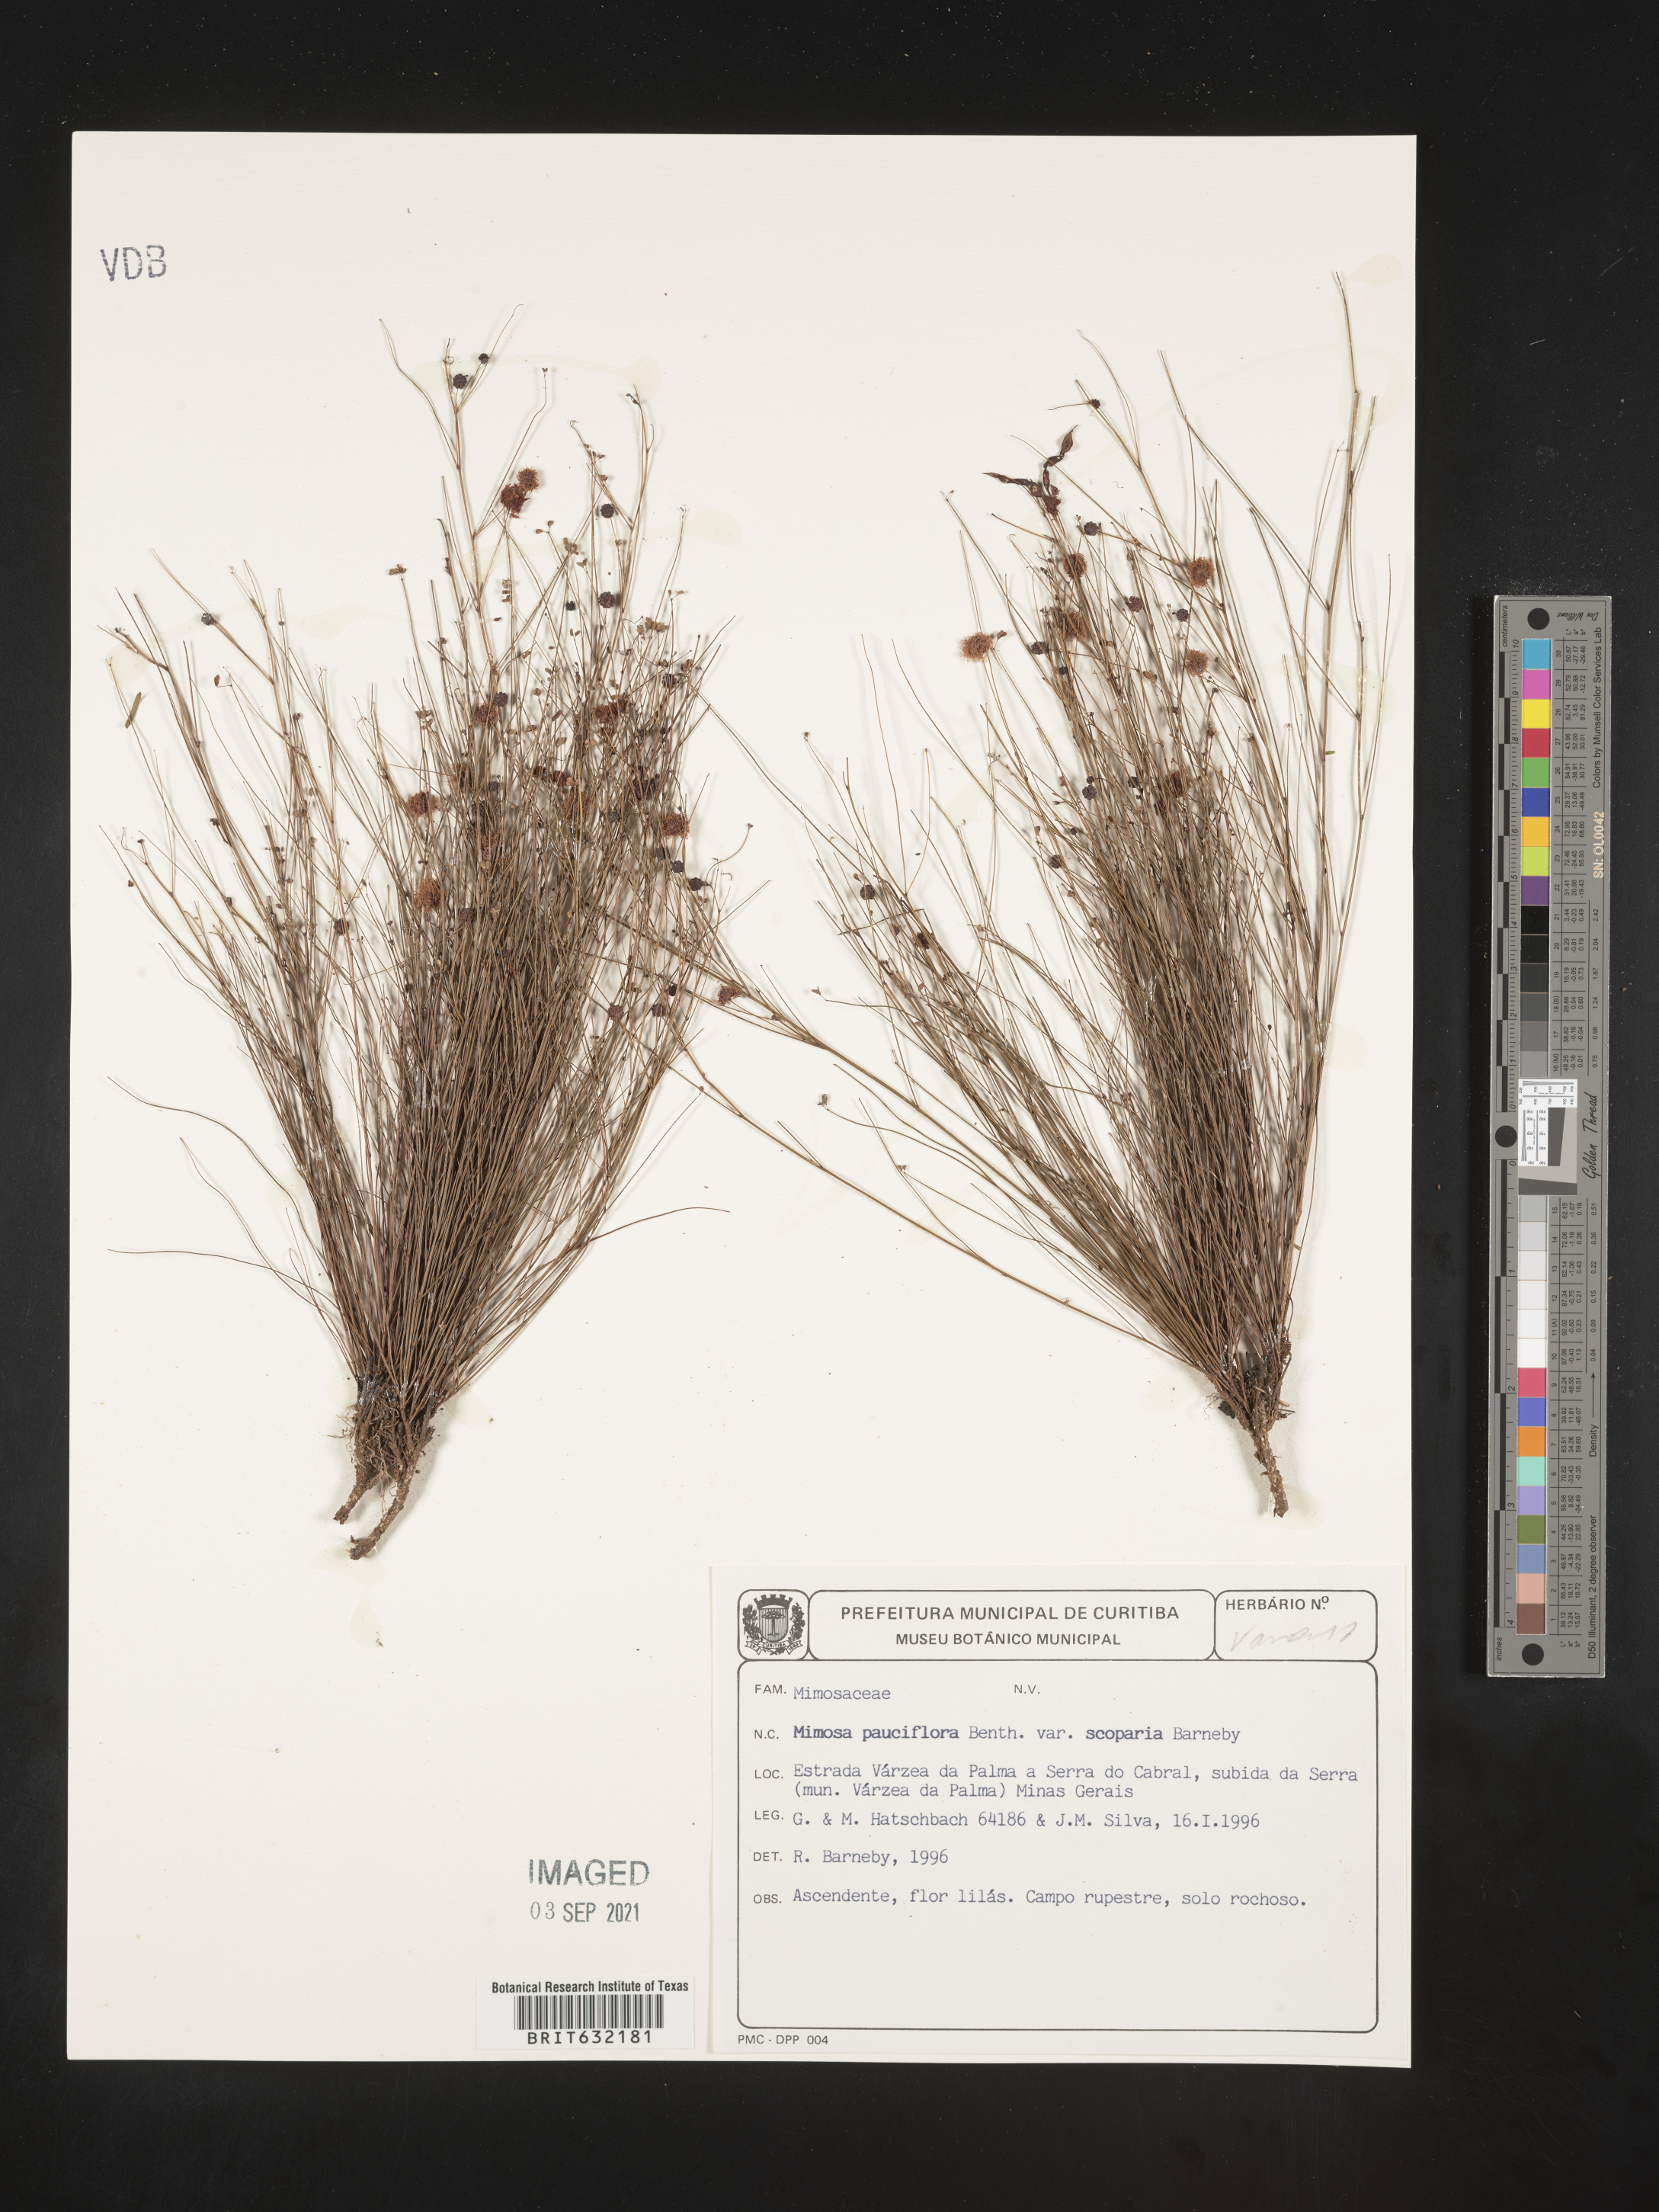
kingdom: Plantae
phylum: Tracheophyta
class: Magnoliopsida
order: Fabales
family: Fabaceae
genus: Mimosa
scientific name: Mimosa
